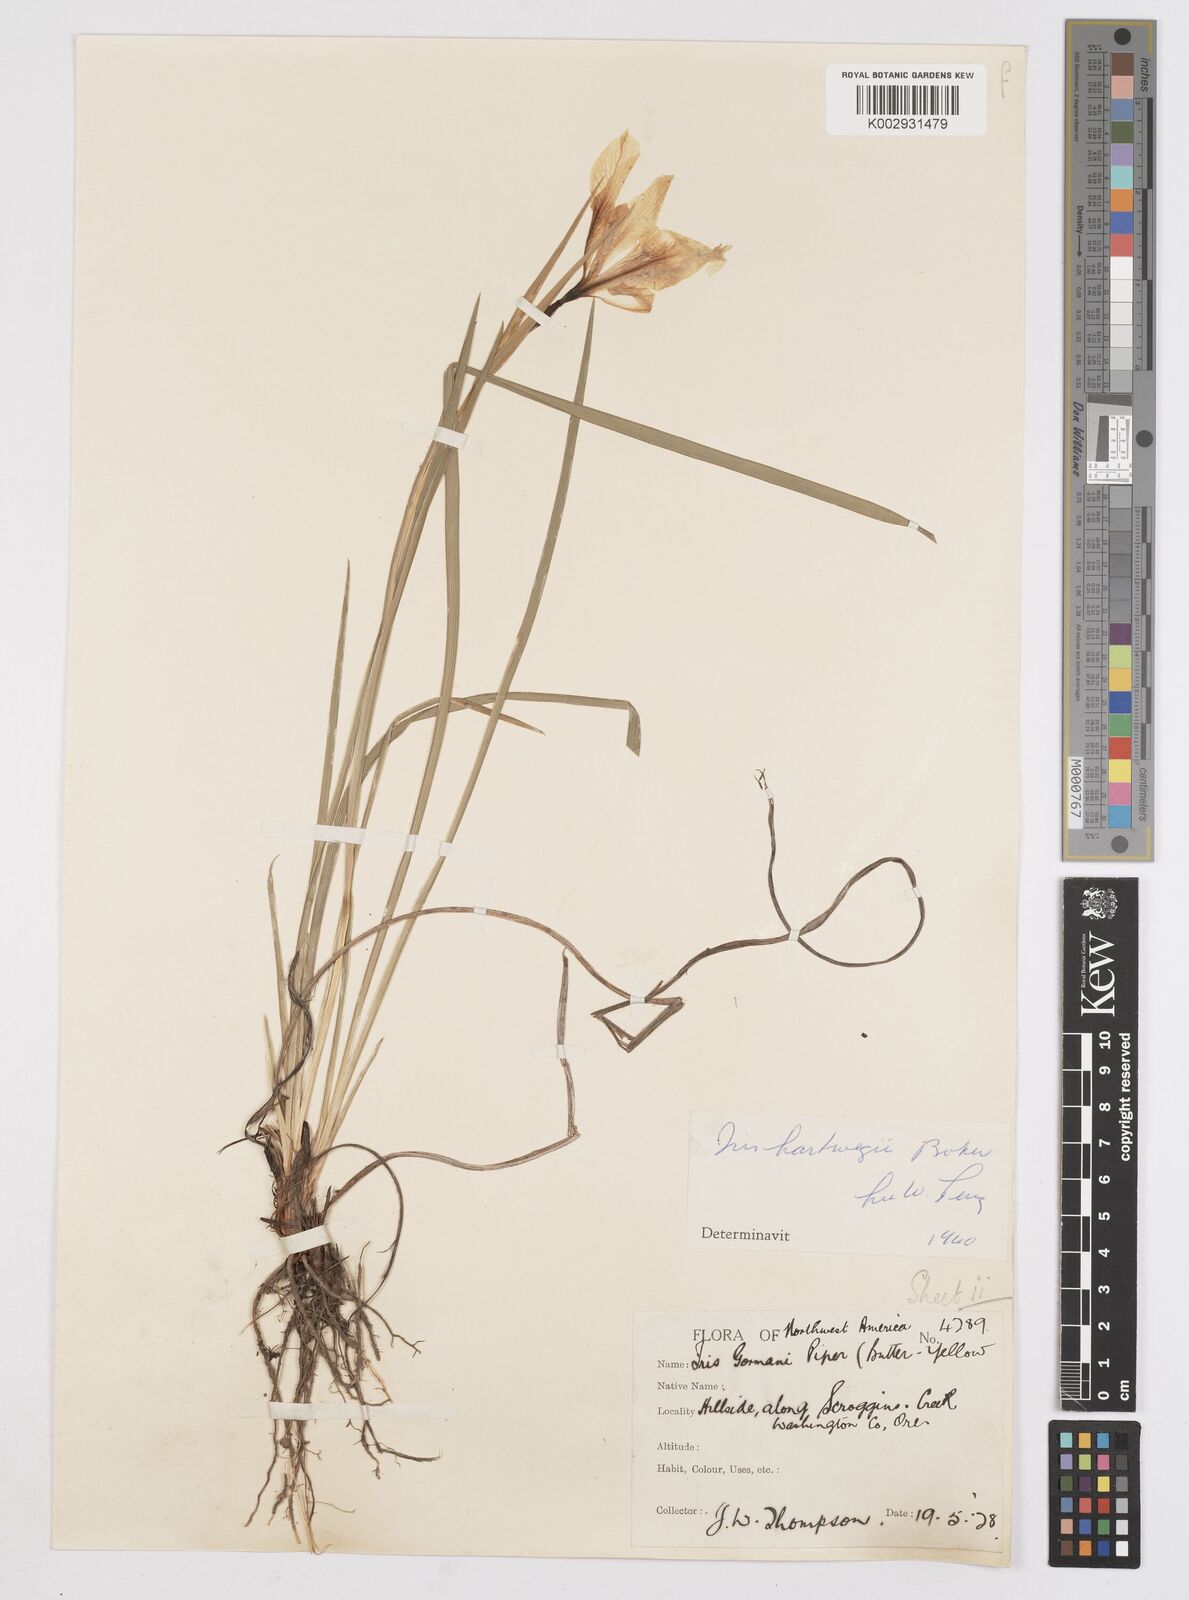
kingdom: Plantae
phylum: Tracheophyta
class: Liliopsida
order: Asparagales
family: Iridaceae
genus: Iris
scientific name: Iris hartwegii
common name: Sierra iris
